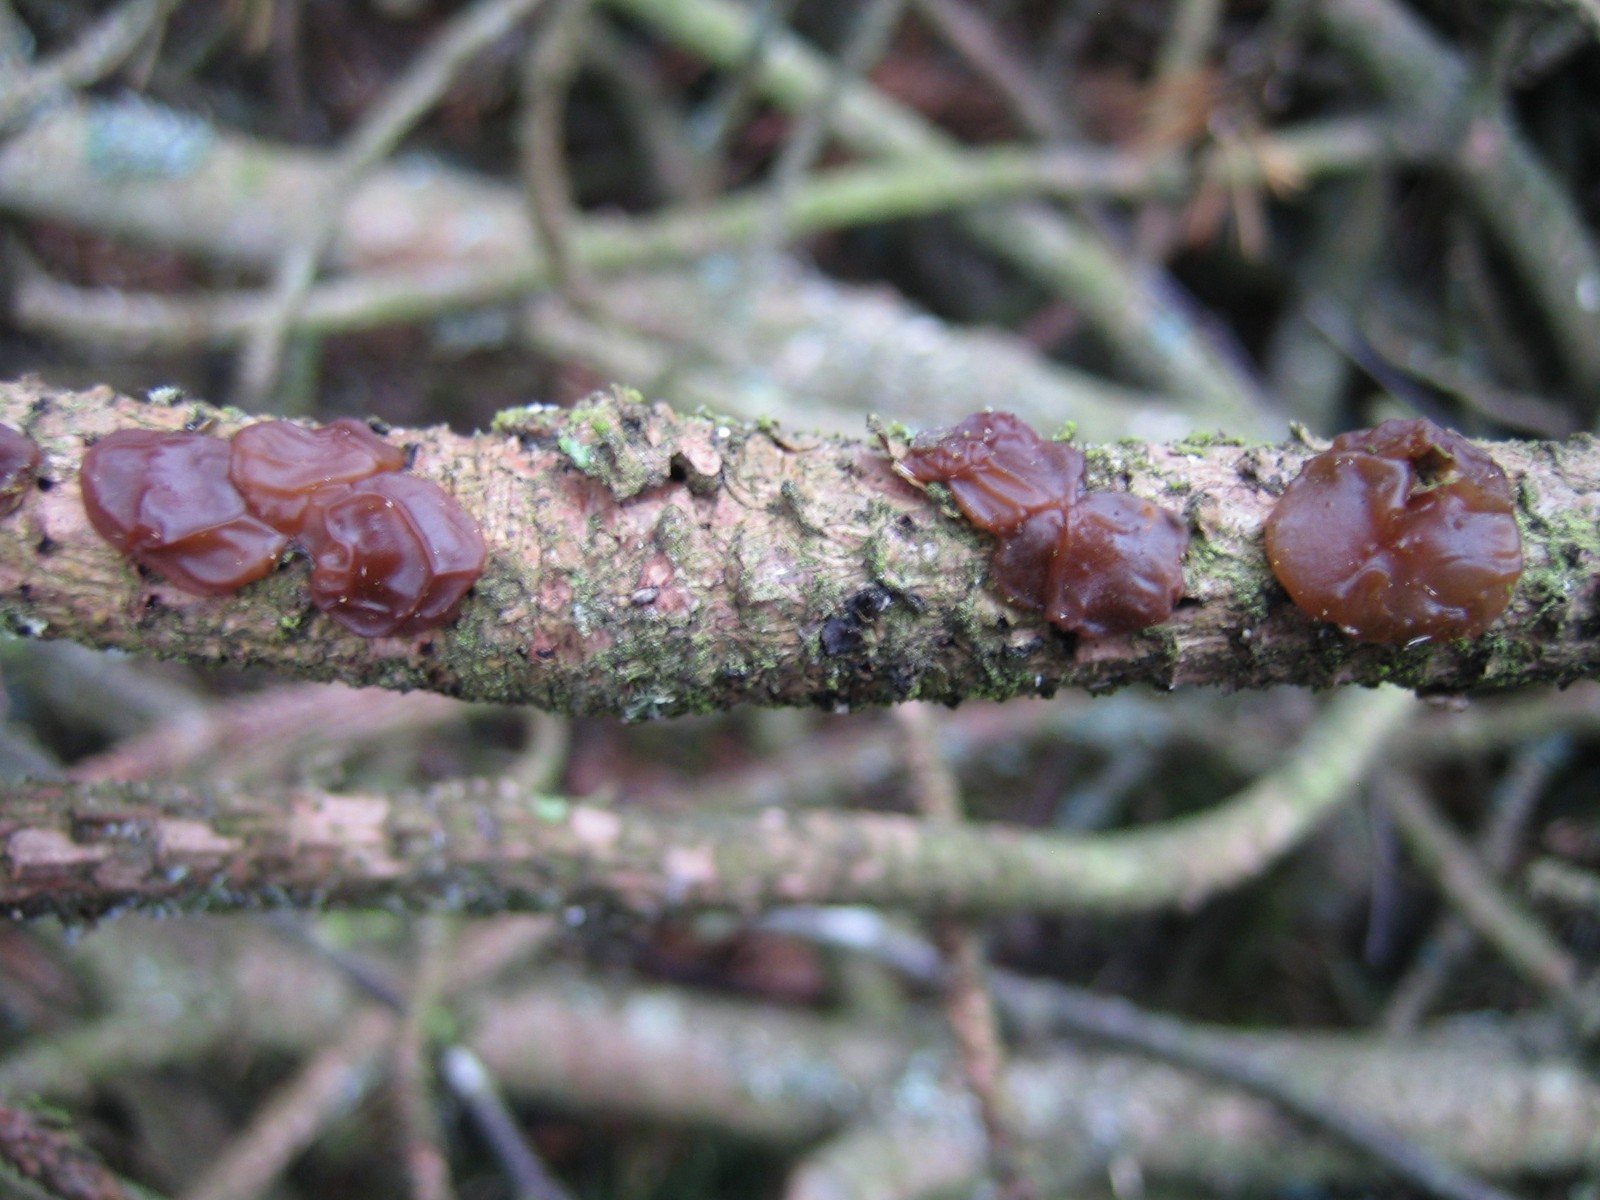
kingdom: Fungi
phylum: Basidiomycota
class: Agaricomycetes
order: Auriculariales
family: Auriculariaceae
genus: Exidia
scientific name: Exidia saccharina
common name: kandis-bævretop
